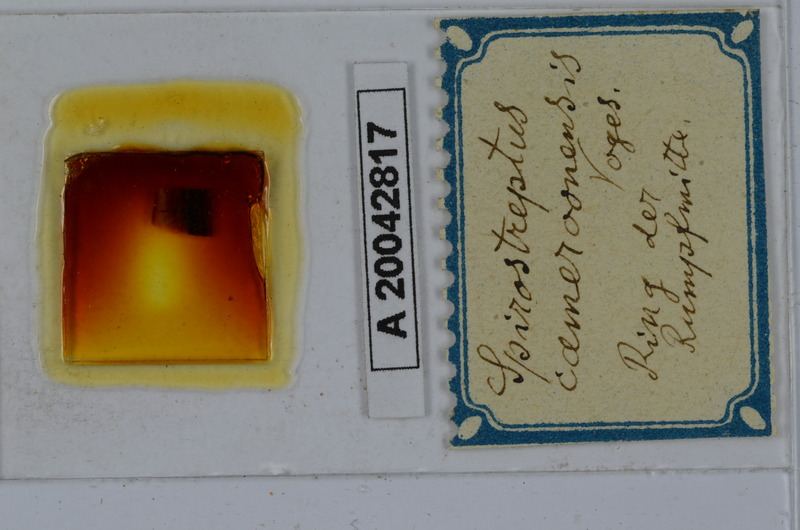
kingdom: Animalia
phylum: Arthropoda
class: Diplopoda
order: Spirostreptida
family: Spirostreptidae
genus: Kartinikus
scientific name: Kartinikus laevis
